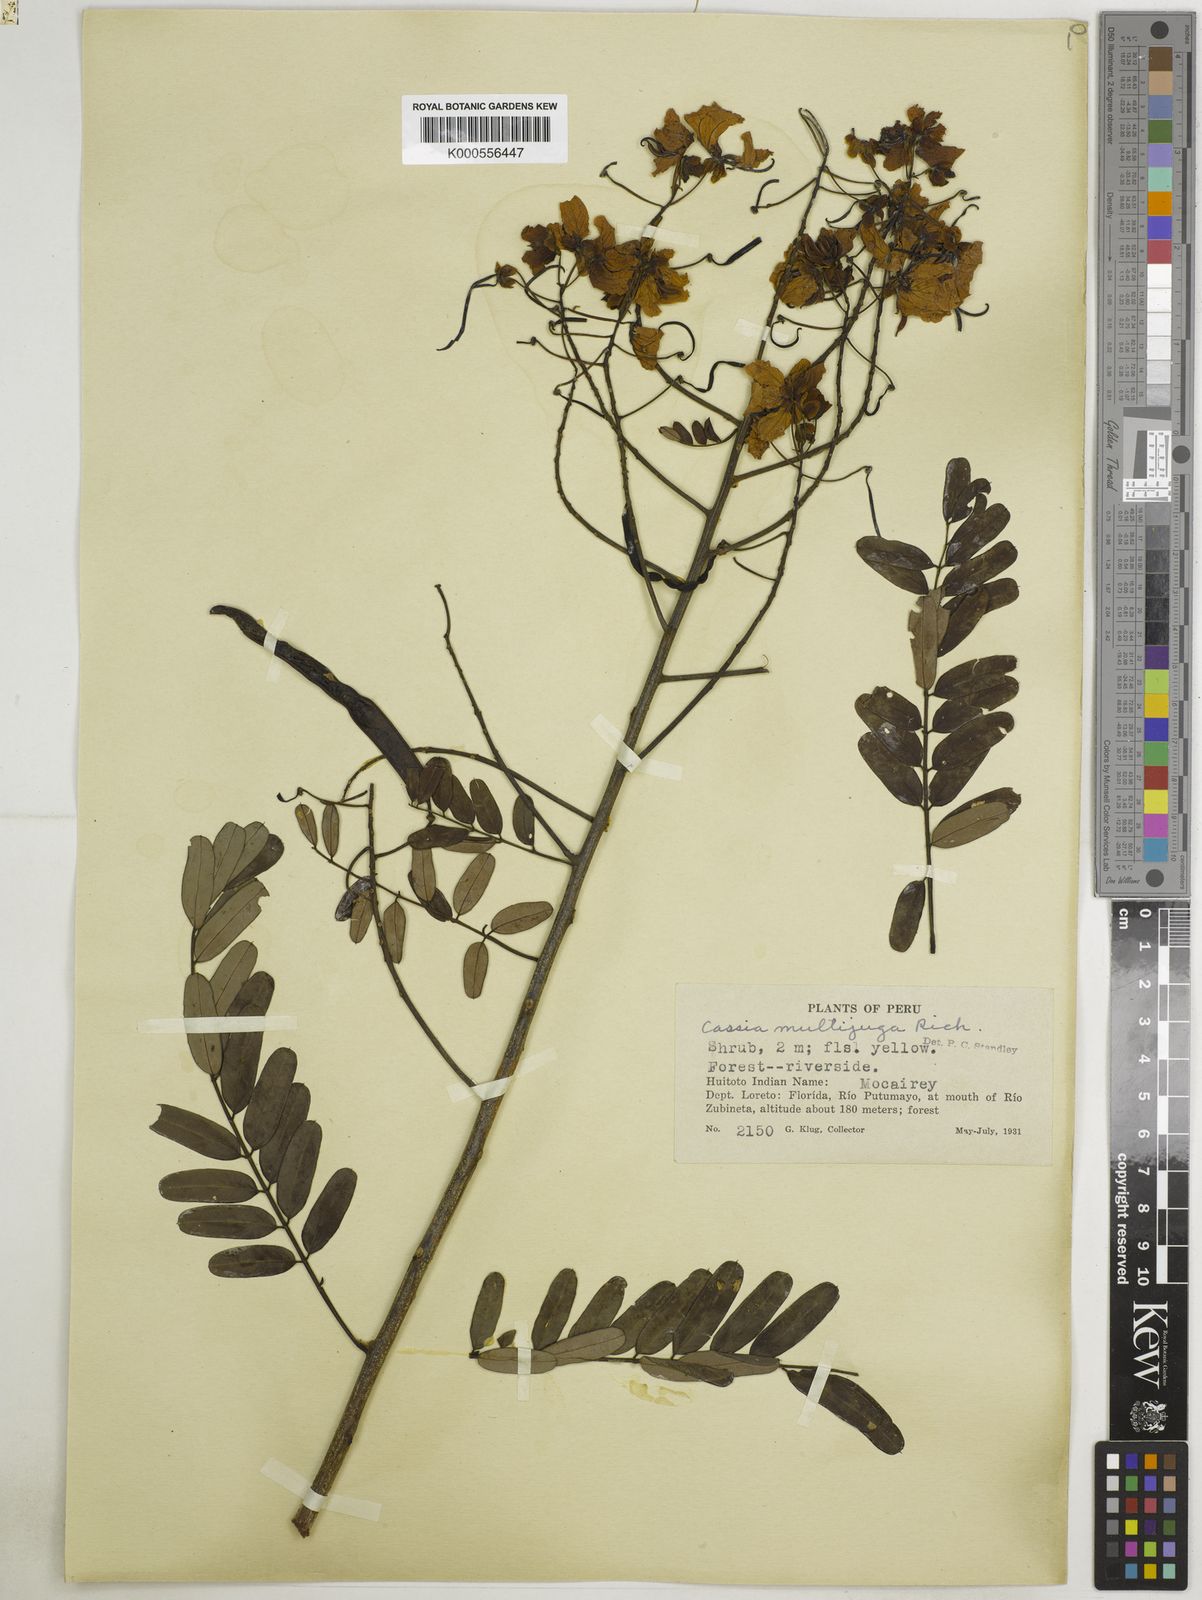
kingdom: Plantae
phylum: Tracheophyta
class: Magnoliopsida
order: Fabales
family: Fabaceae
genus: Senna
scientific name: Senna multijuga
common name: False sicklepod
